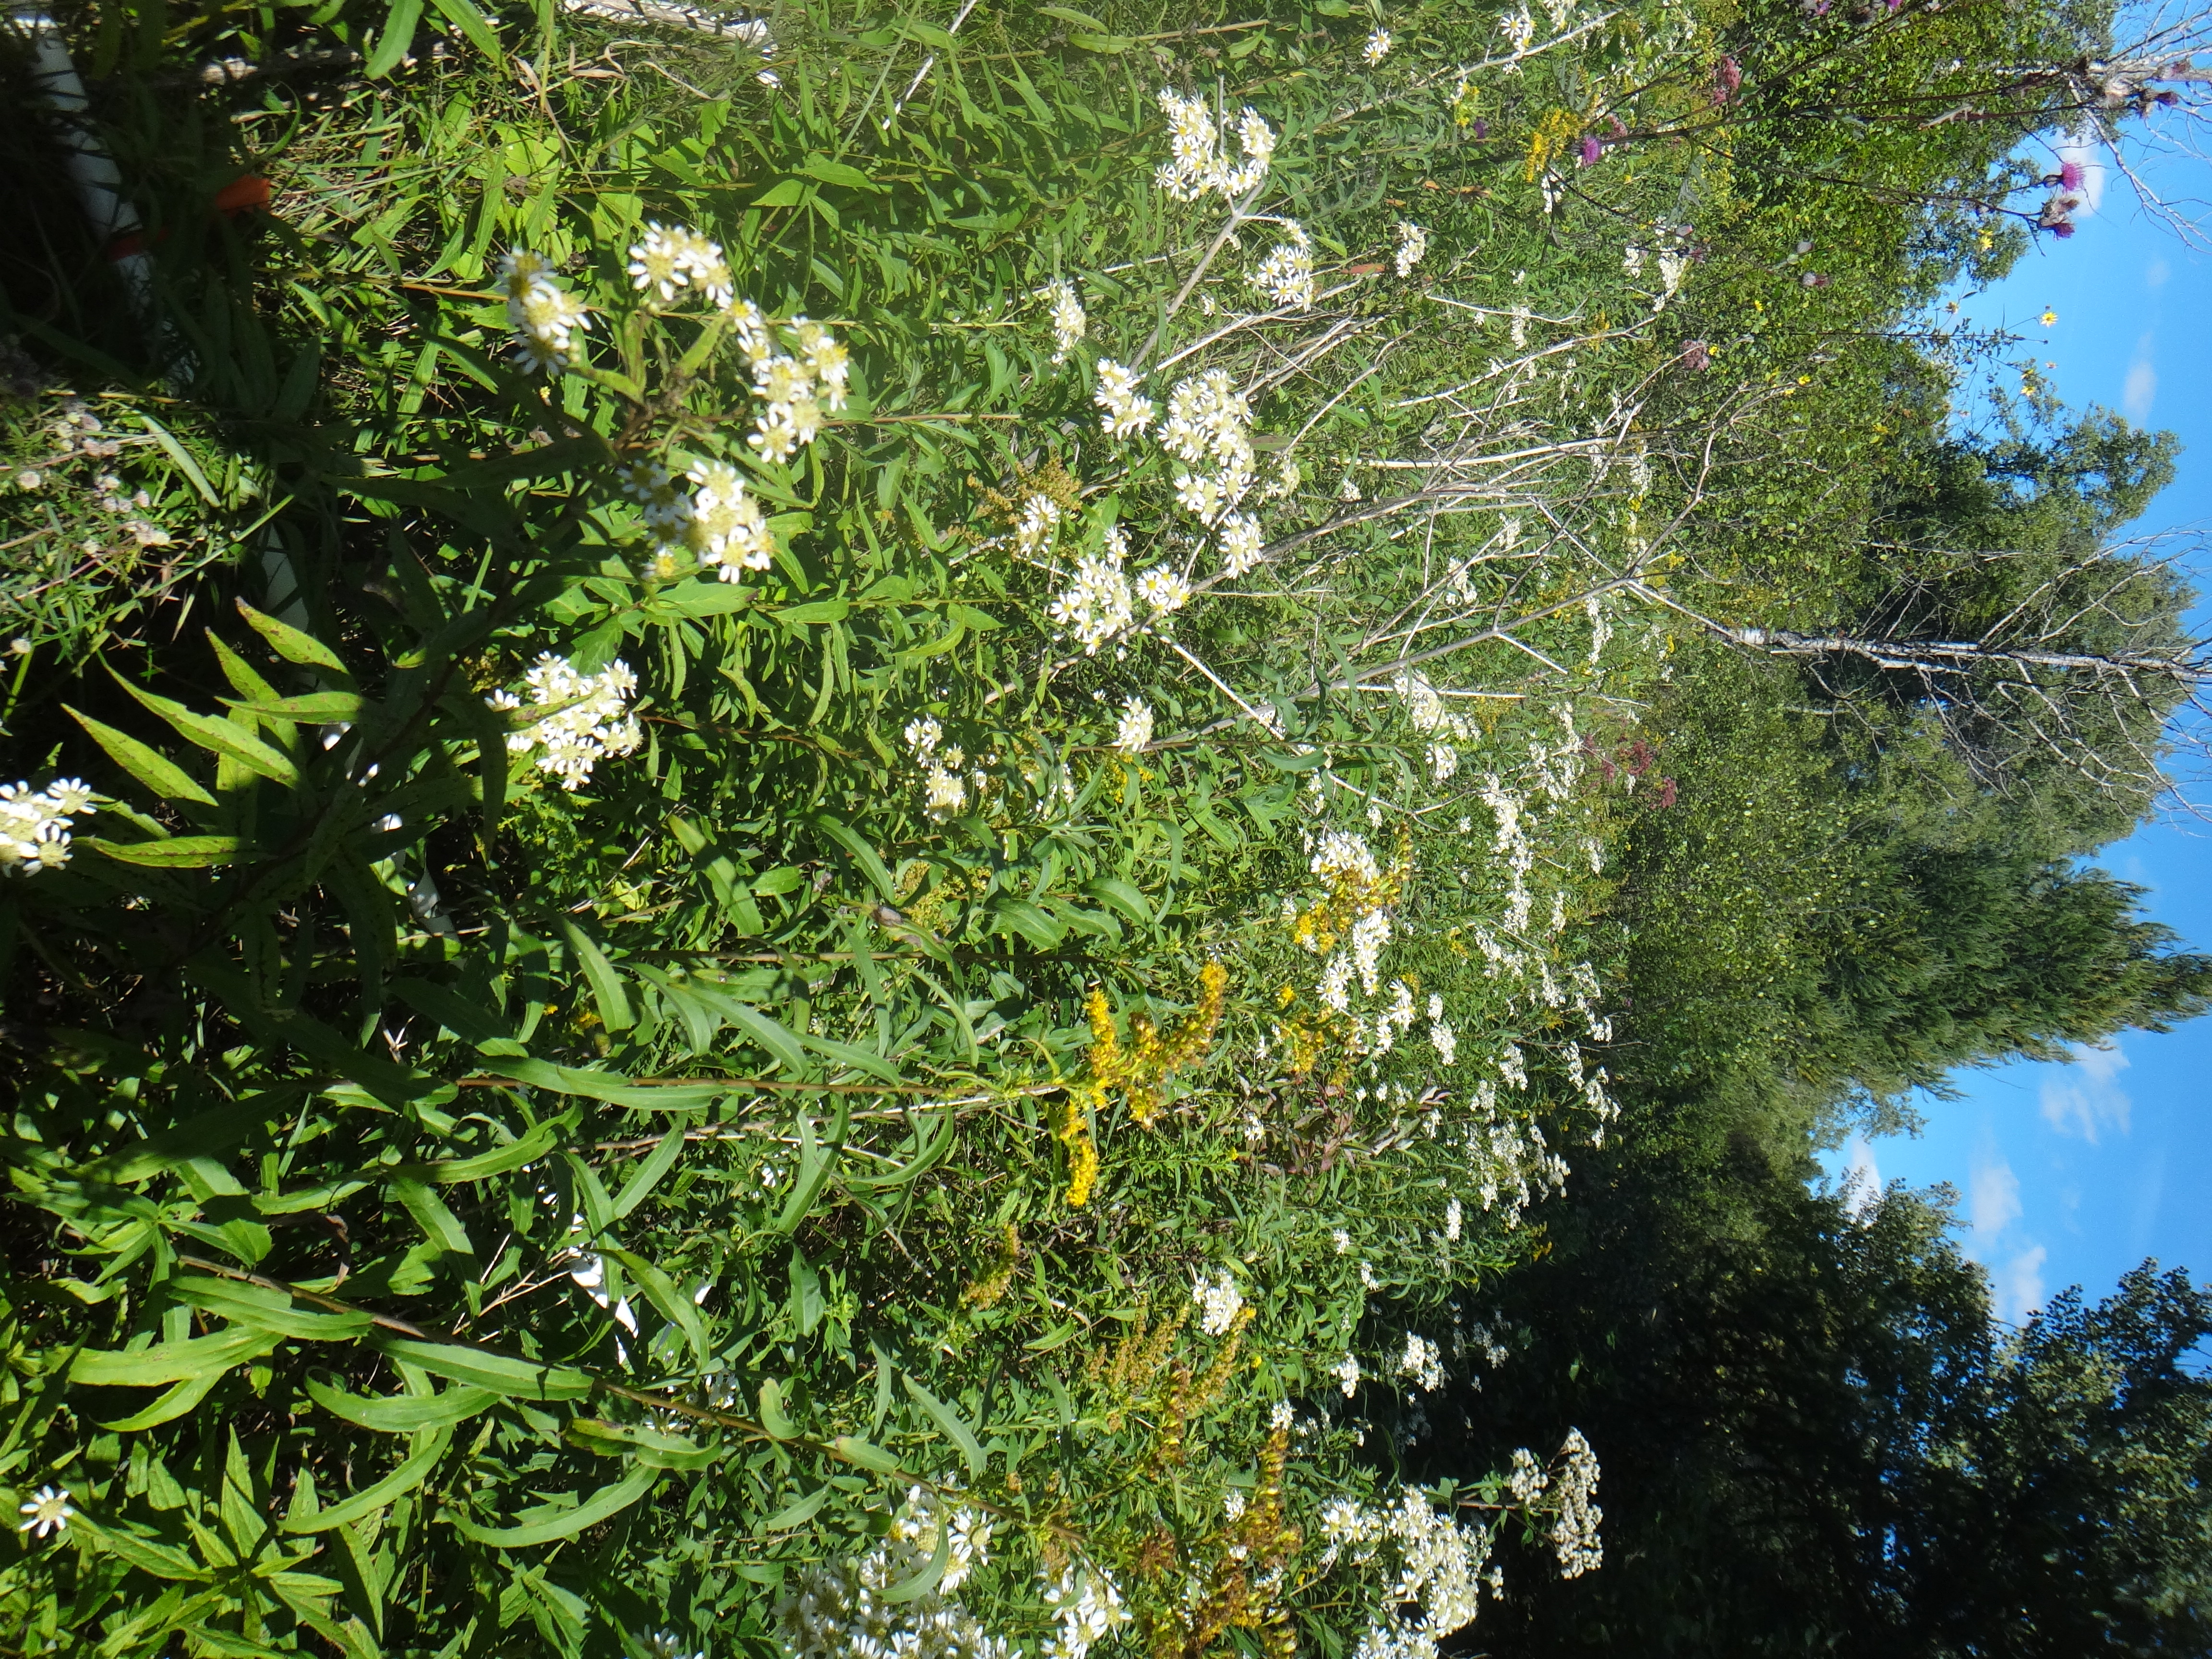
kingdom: Plantae
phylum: Tracheophyta
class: Magnoliopsida
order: Asterales
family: Asteraceae
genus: Solidago
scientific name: Solidago gigantea
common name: Giant goldenrod
